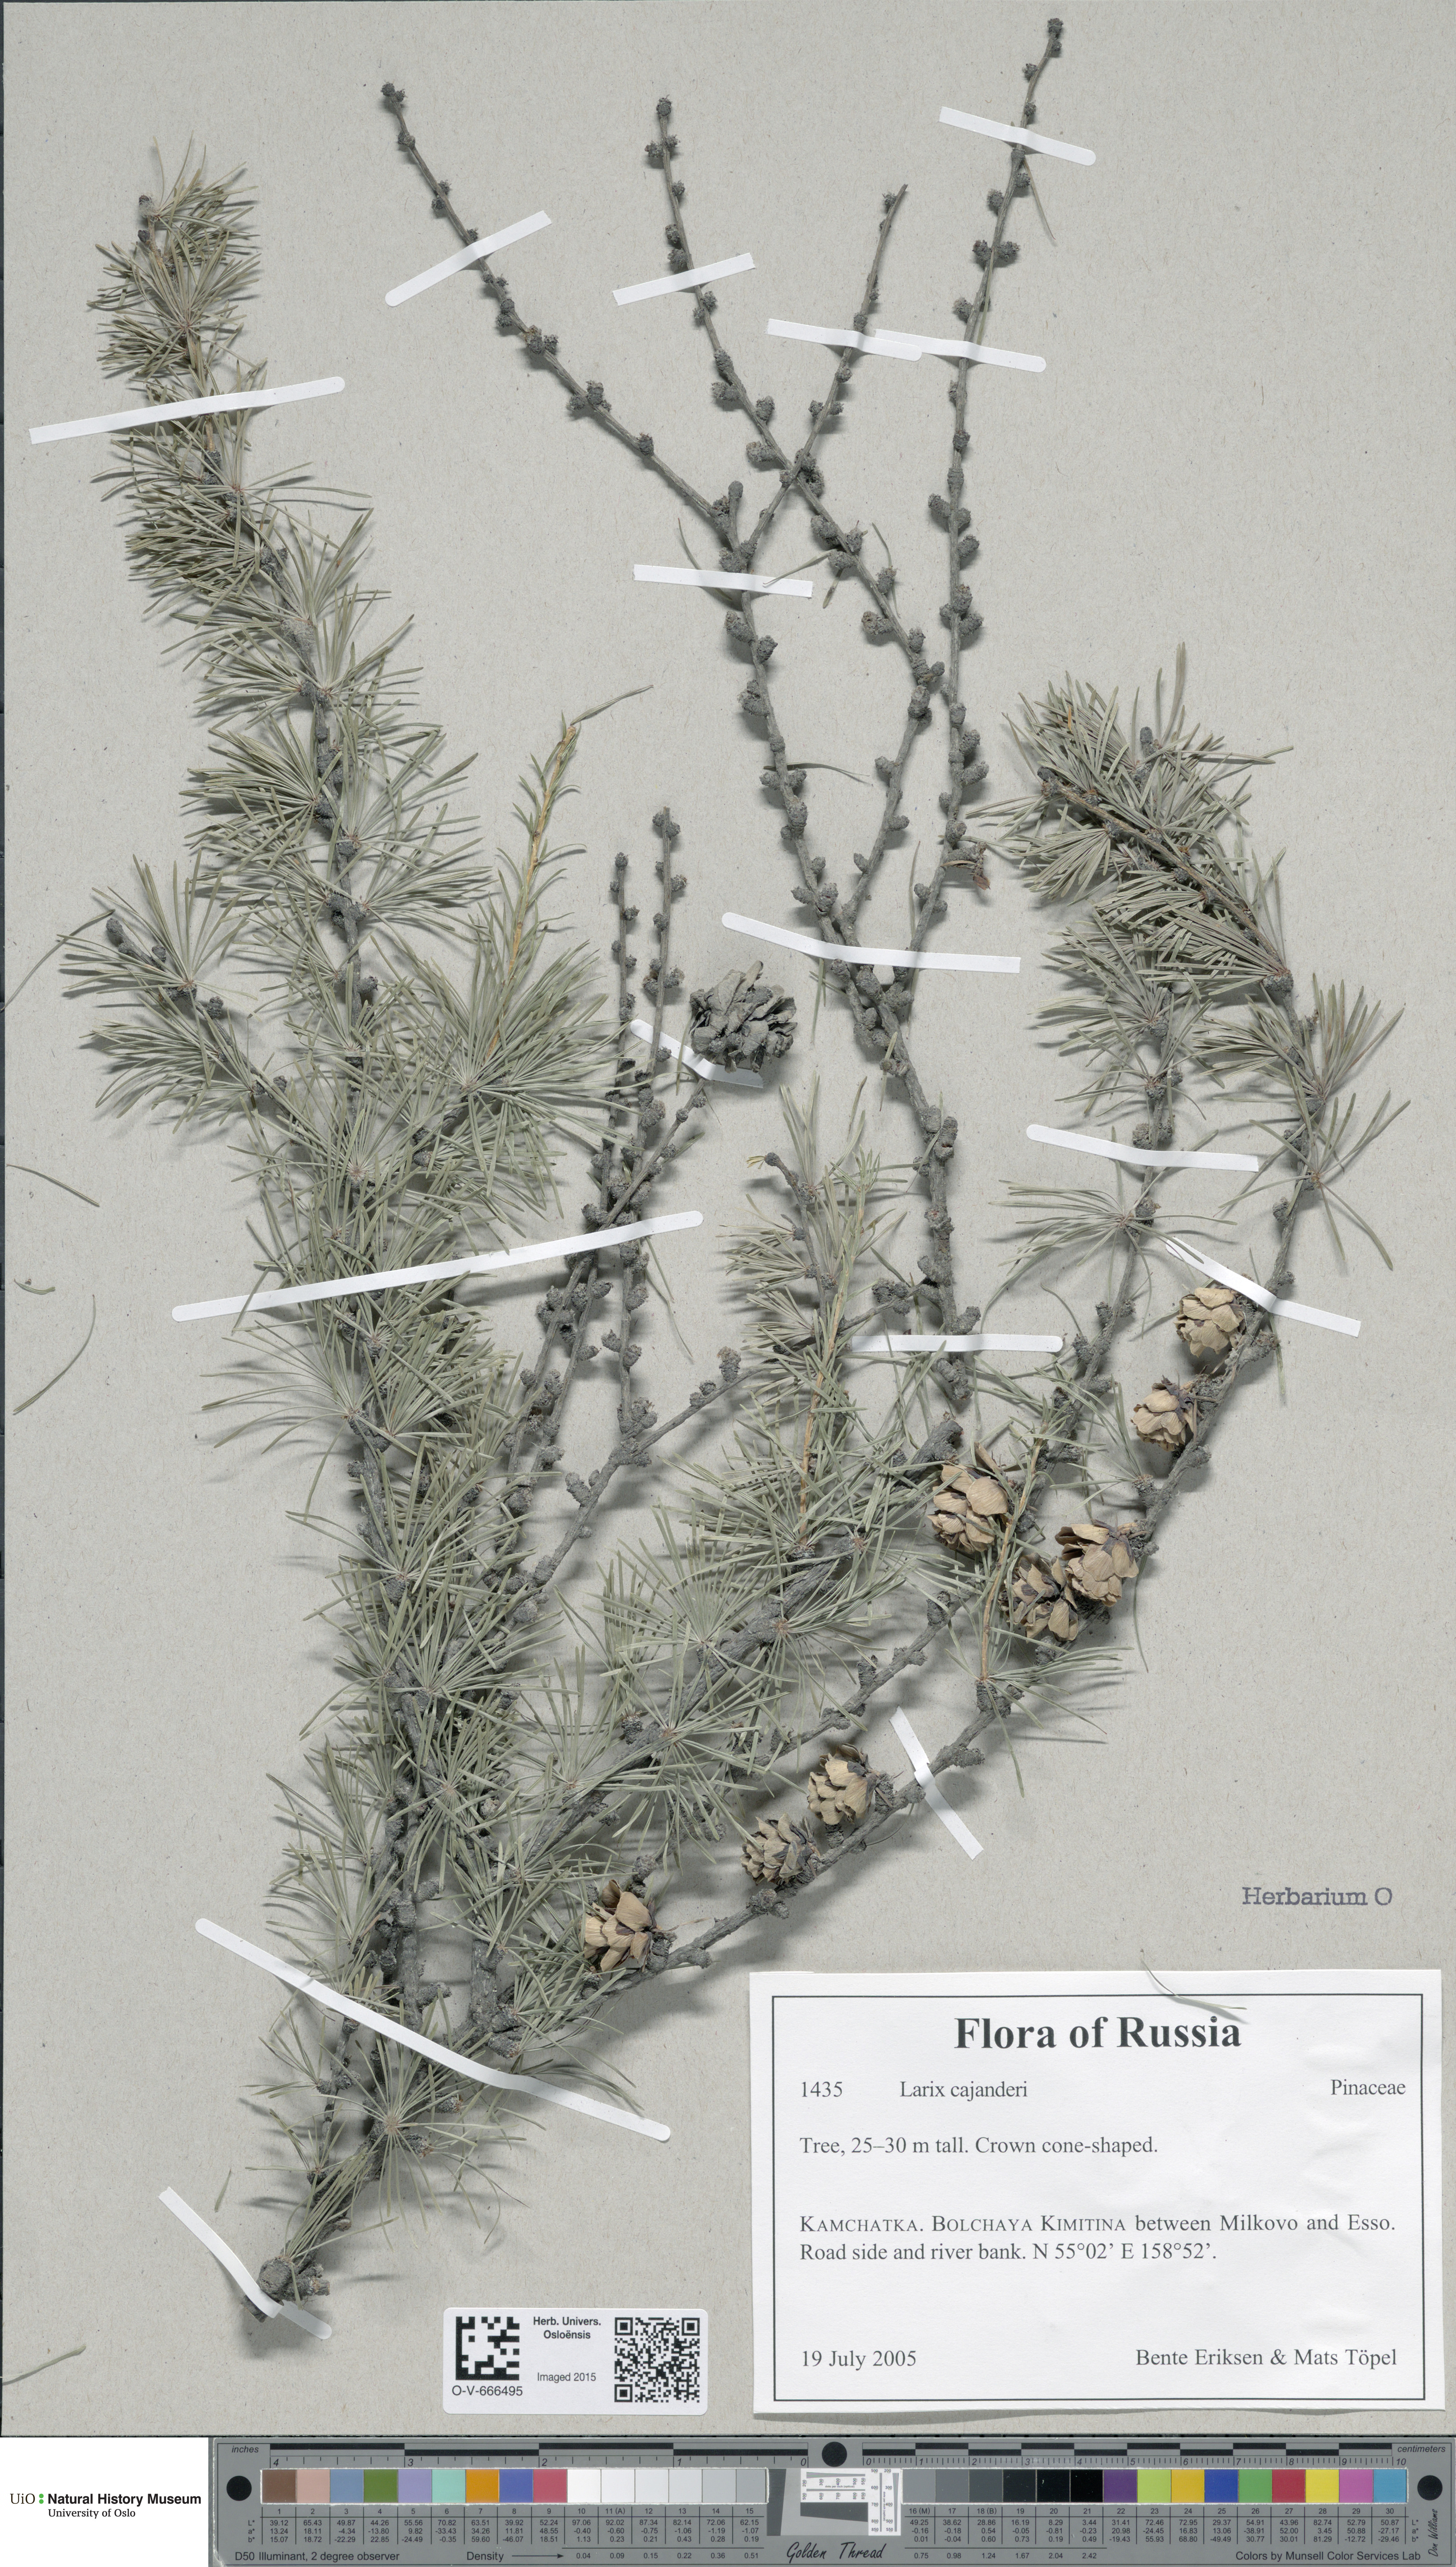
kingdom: Plantae
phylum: Tracheophyta
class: Pinopsida
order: Pinales
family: Pinaceae
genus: Larix
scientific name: Larix gmelinii
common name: Dahurian larch
